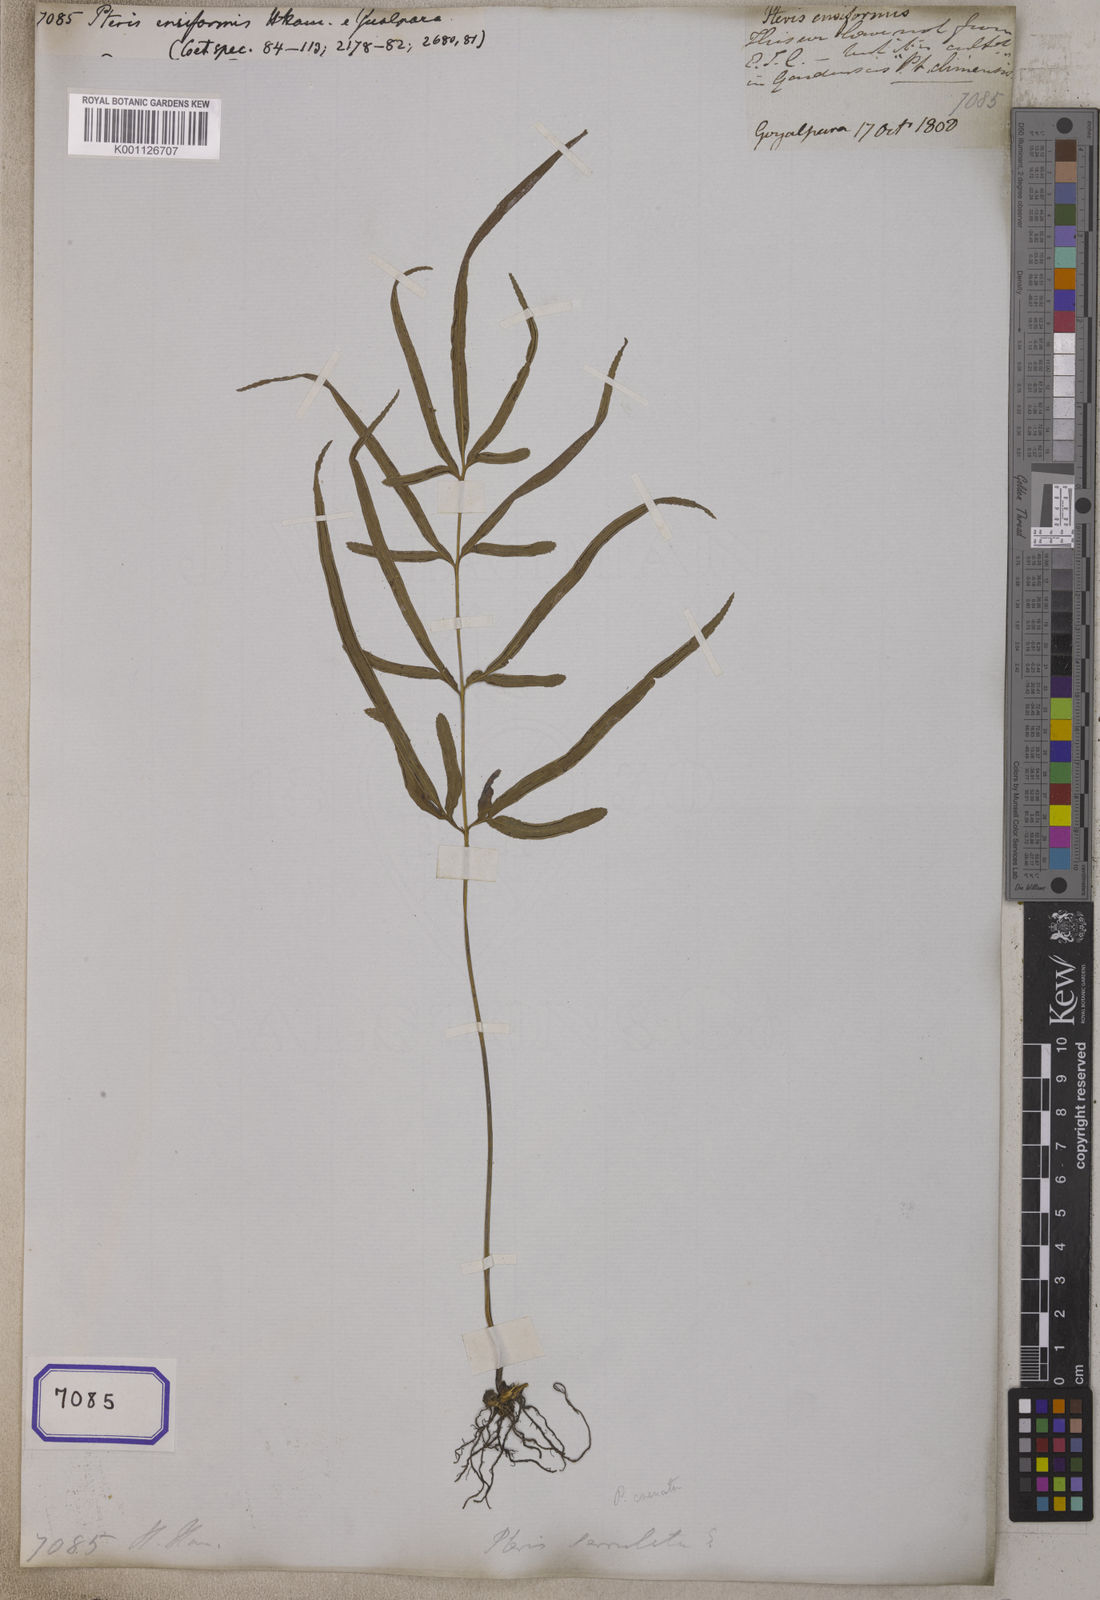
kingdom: Plantae
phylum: Tracheophyta
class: Polypodiopsida
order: Polypodiales
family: Pteridaceae
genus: Pteris
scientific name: Pteris ensiformis
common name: Sword brake
